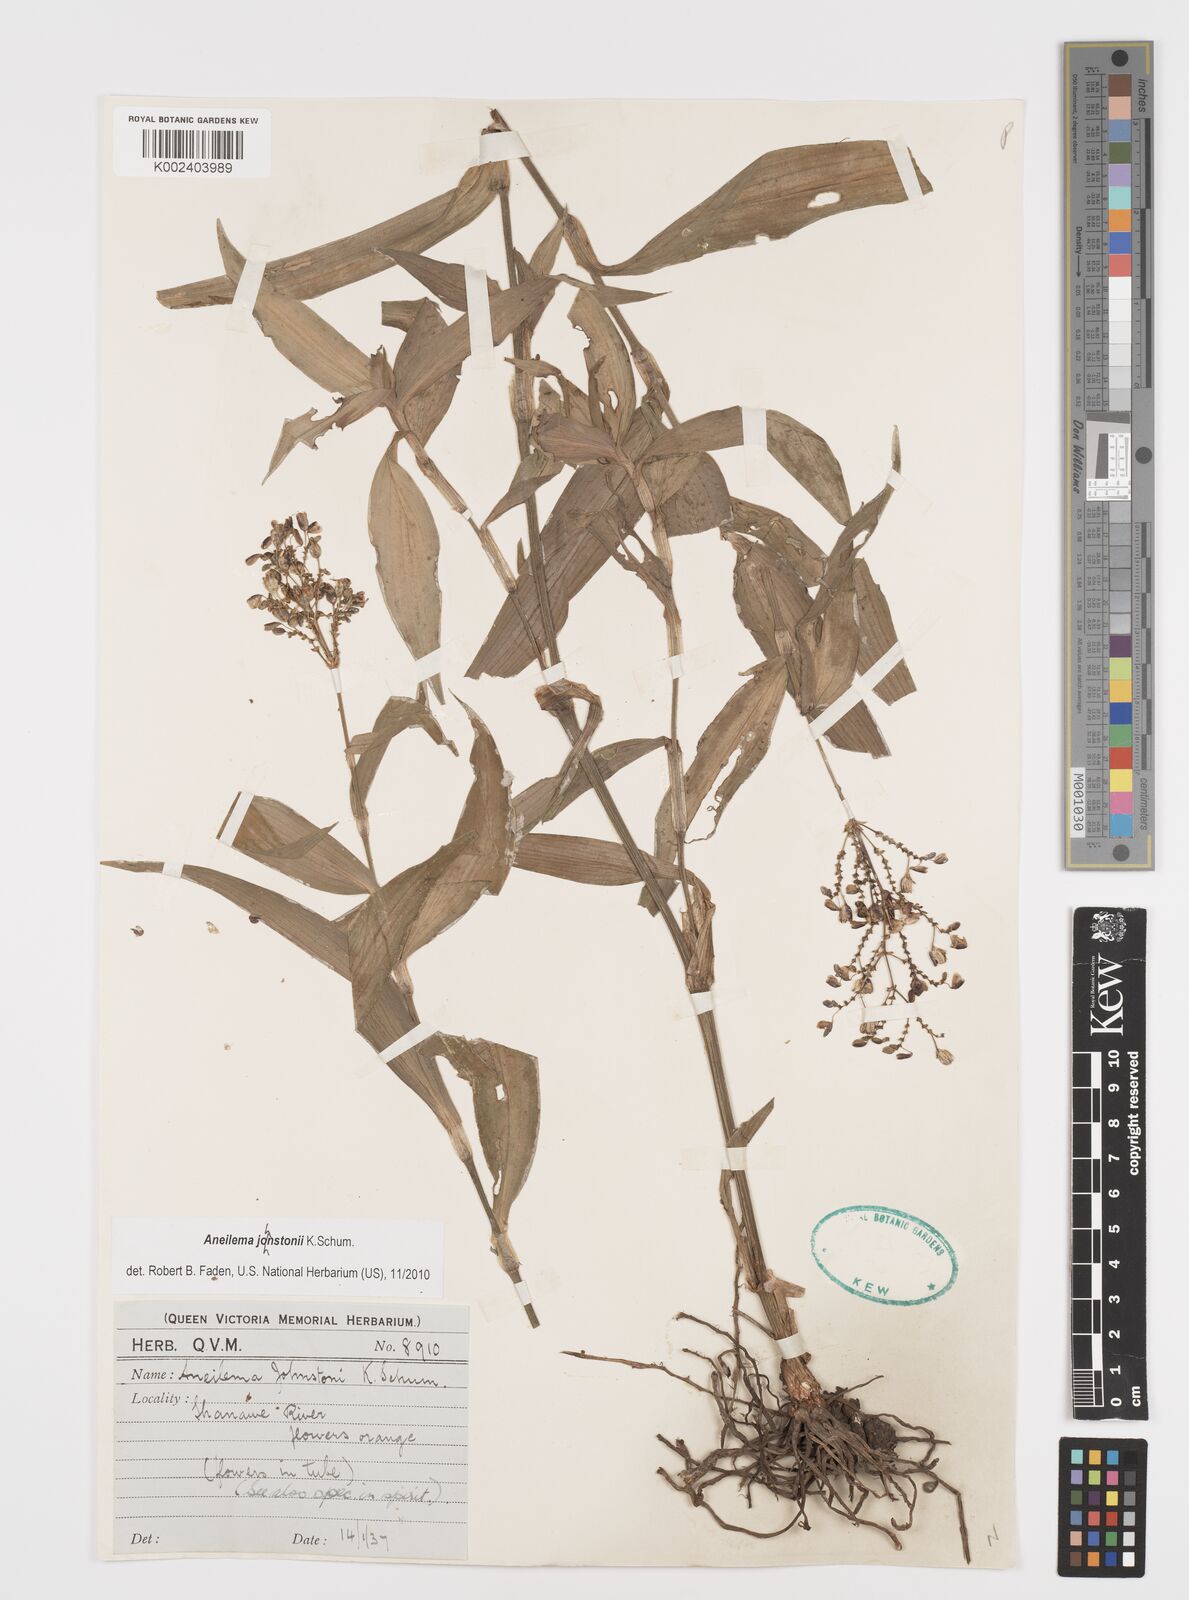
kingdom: Plantae
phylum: Tracheophyta
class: Liliopsida
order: Commelinales
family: Commelinaceae
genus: Aneilema
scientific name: Aneilema johnstonii
